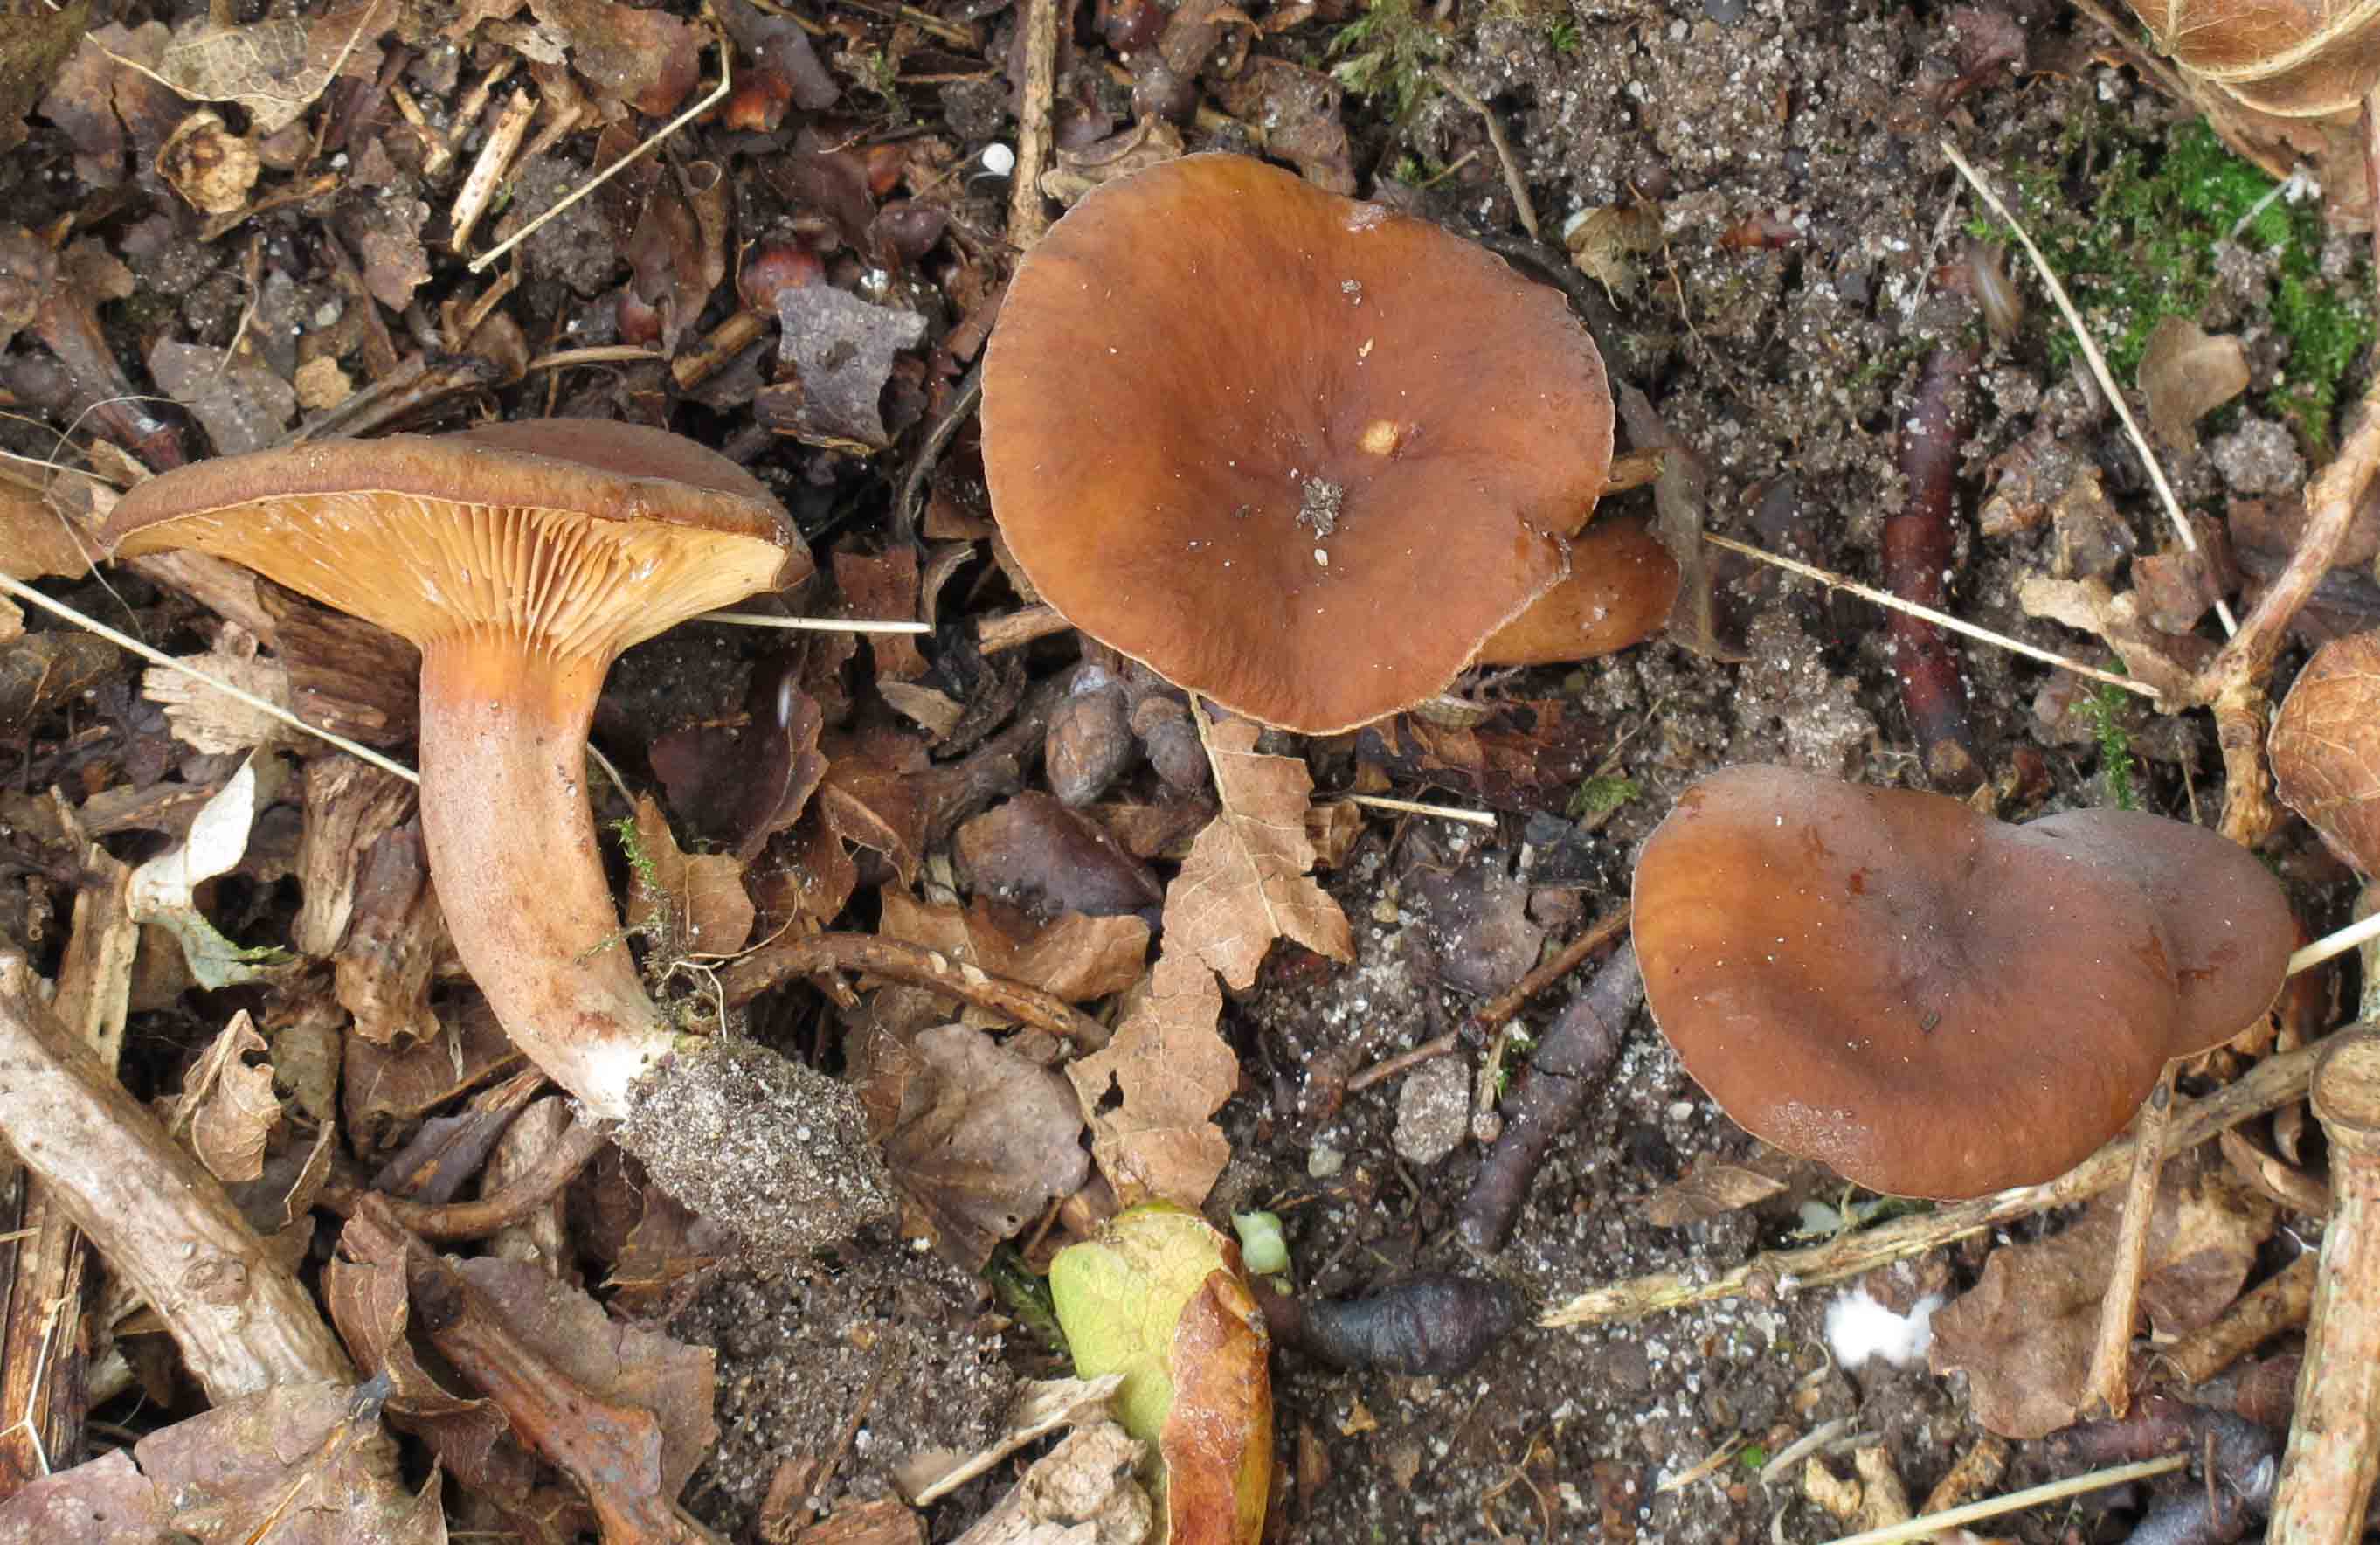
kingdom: Fungi
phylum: Basidiomycota
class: Agaricomycetes
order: Russulales
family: Russulaceae
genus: Lactarius
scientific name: Lactarius serifluus
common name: tæge-mælkehat
